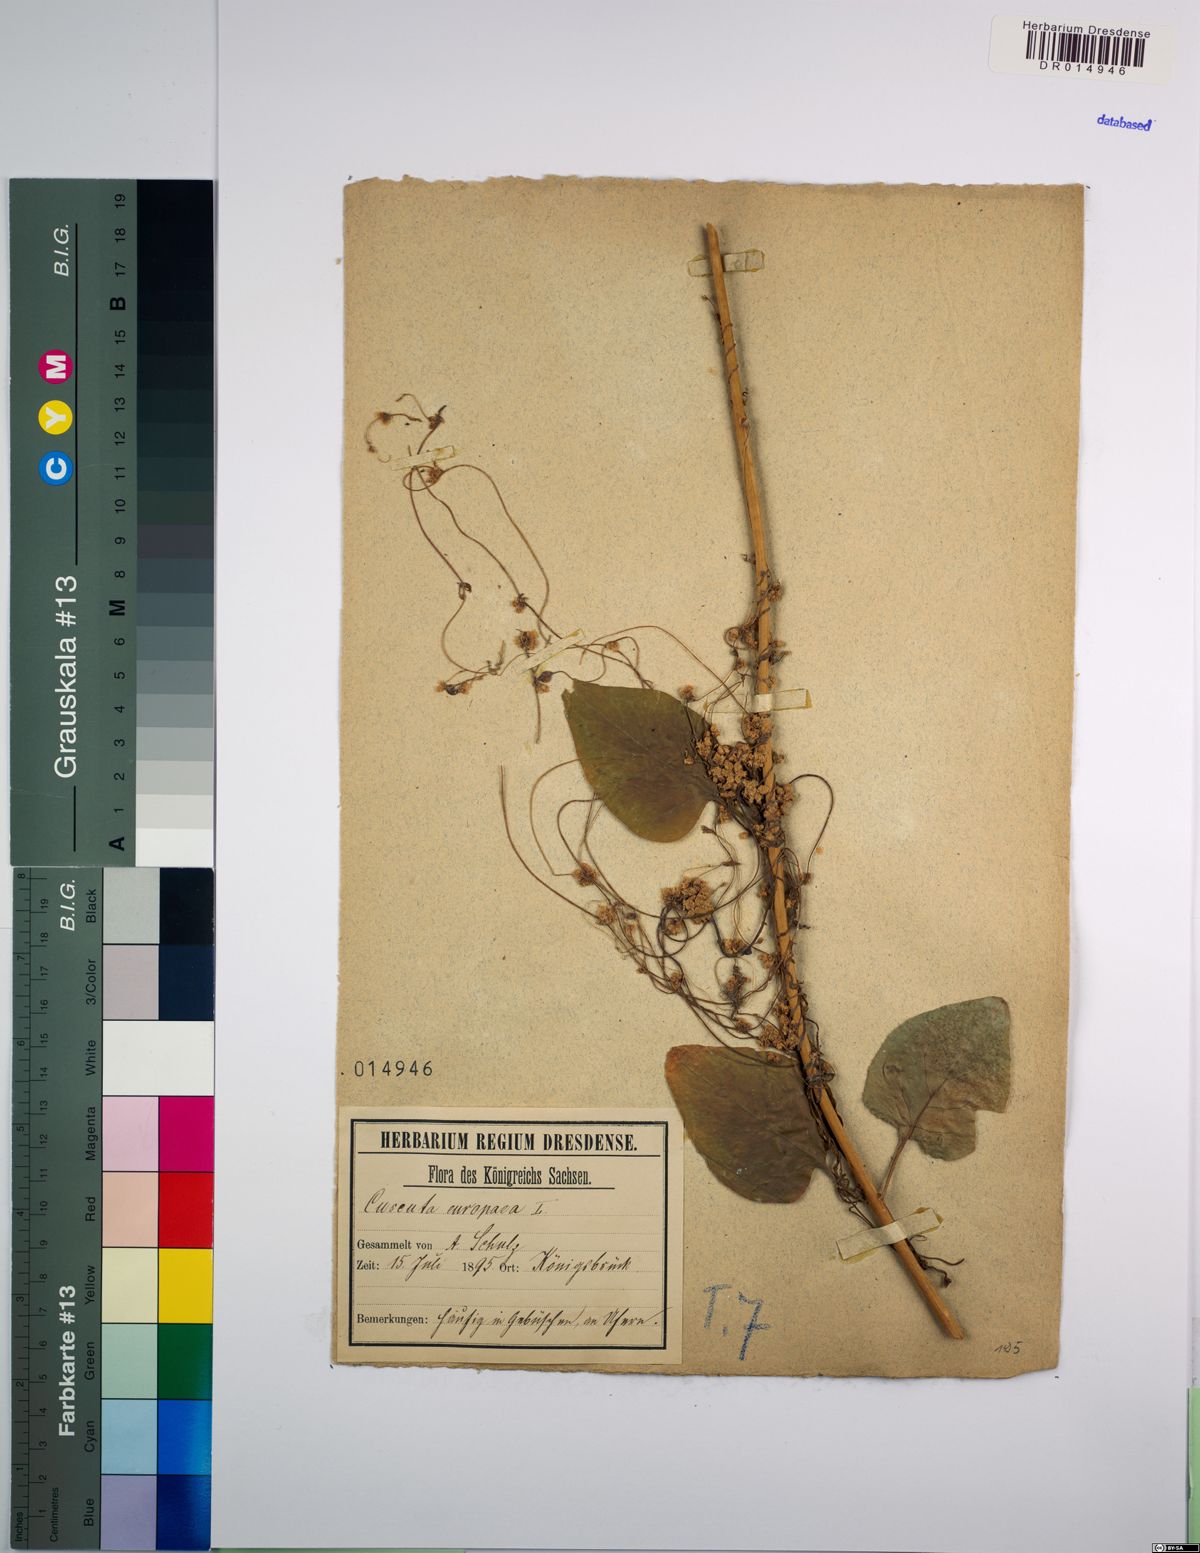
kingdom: Plantae
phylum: Tracheophyta
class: Magnoliopsida
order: Solanales
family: Convolvulaceae
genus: Cuscuta
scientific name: Cuscuta europaea
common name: Greater dodder
